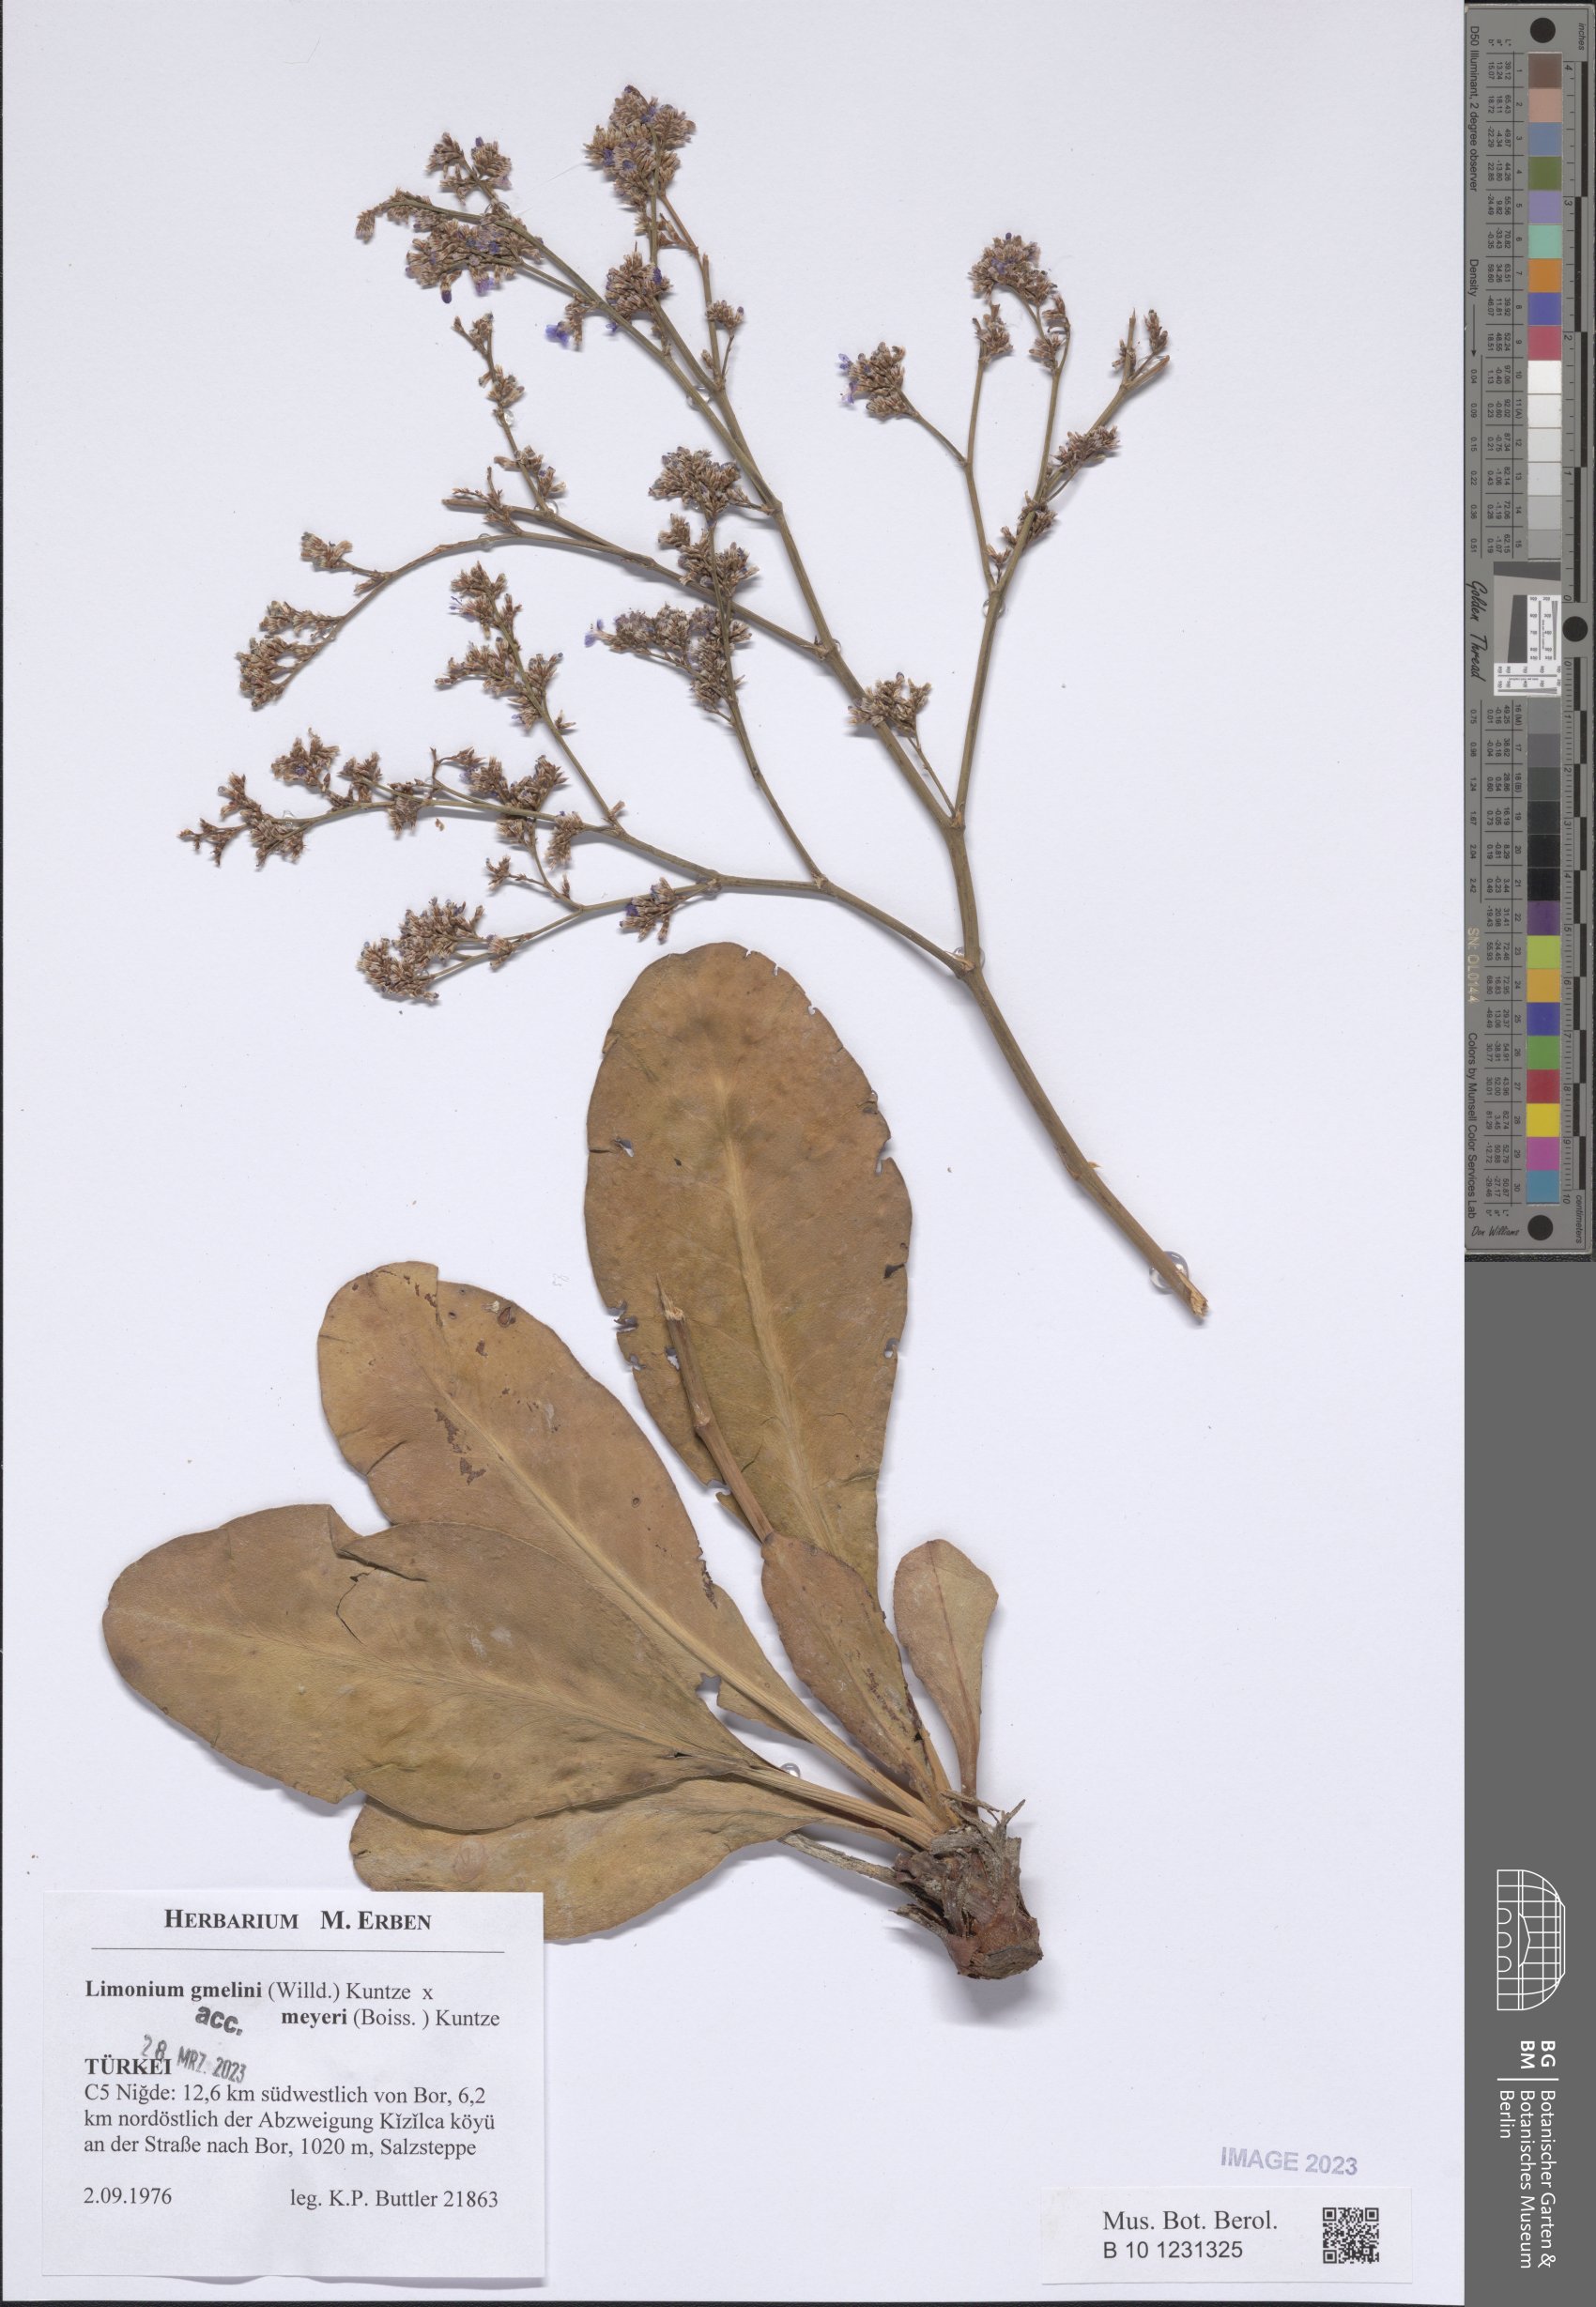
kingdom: Plantae
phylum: Tracheophyta
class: Magnoliopsida
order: Caryophyllales
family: Plumbaginaceae
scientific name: Plumbaginaceae
